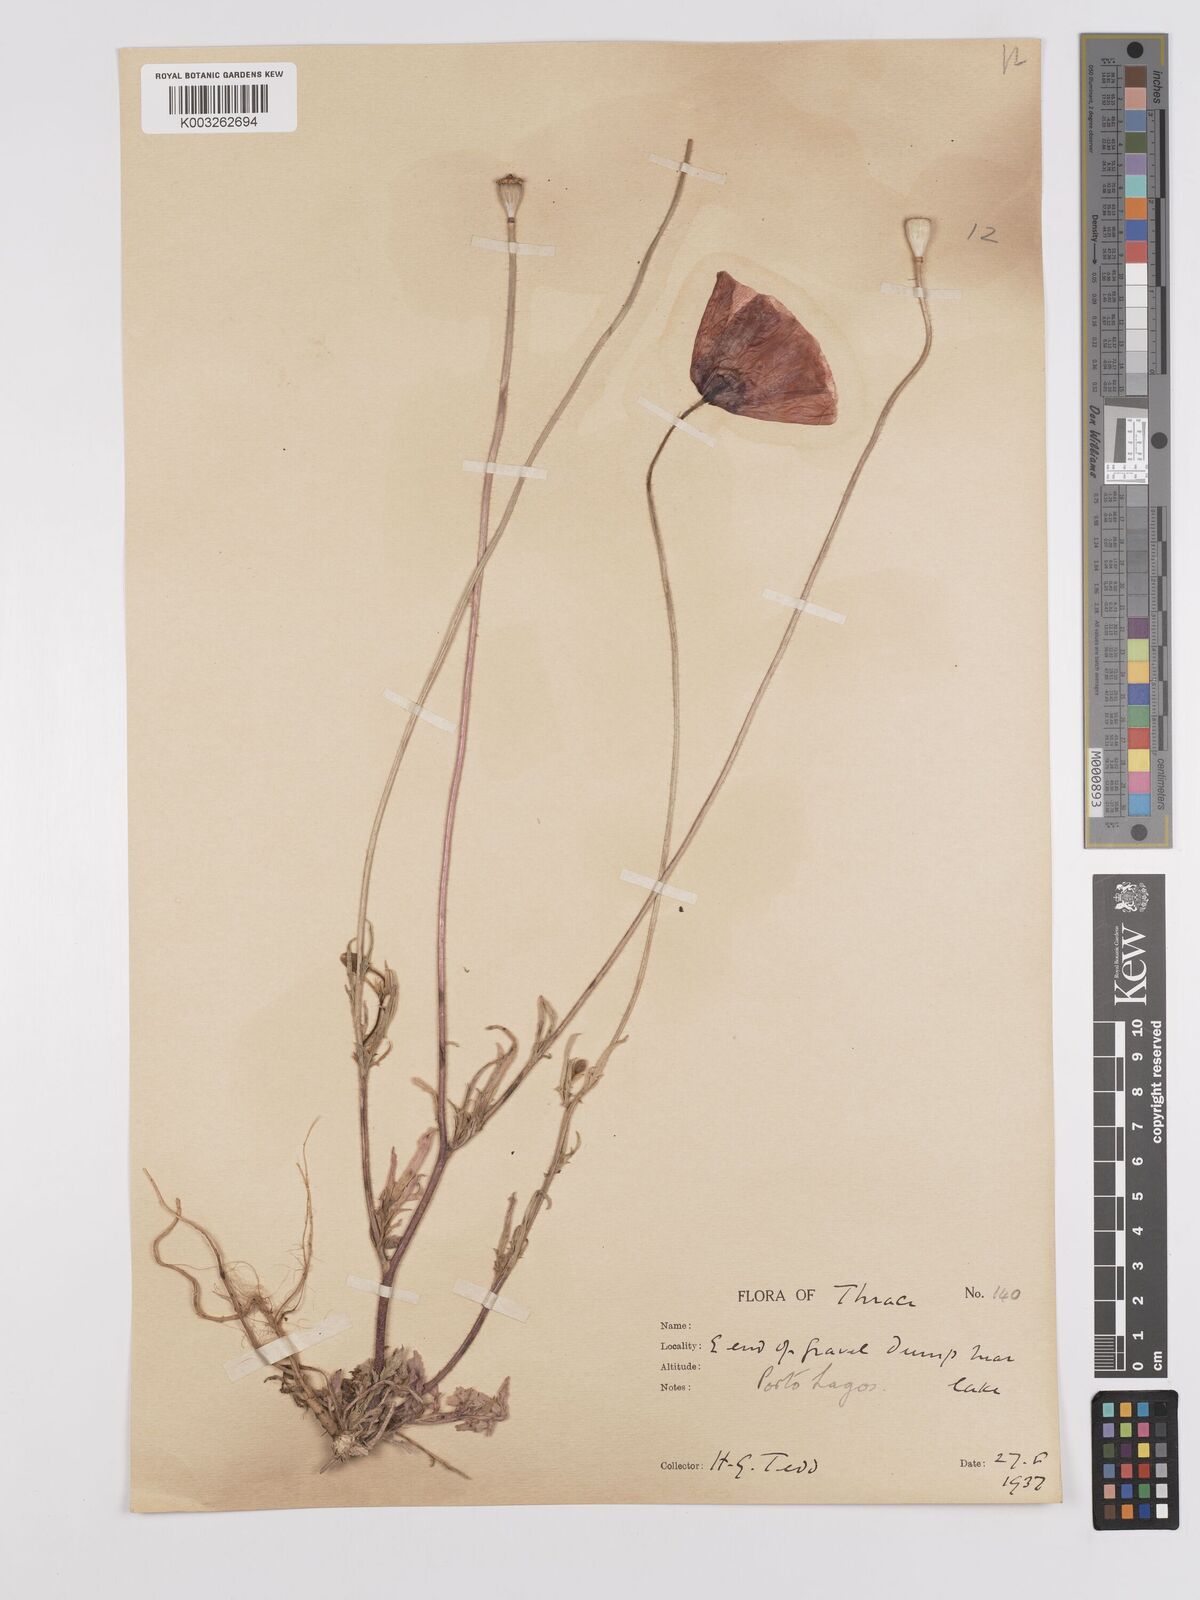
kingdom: Plantae
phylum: Tracheophyta
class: Magnoliopsida
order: Ranunculales
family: Papaveraceae
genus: Papaver
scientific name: Papaver
